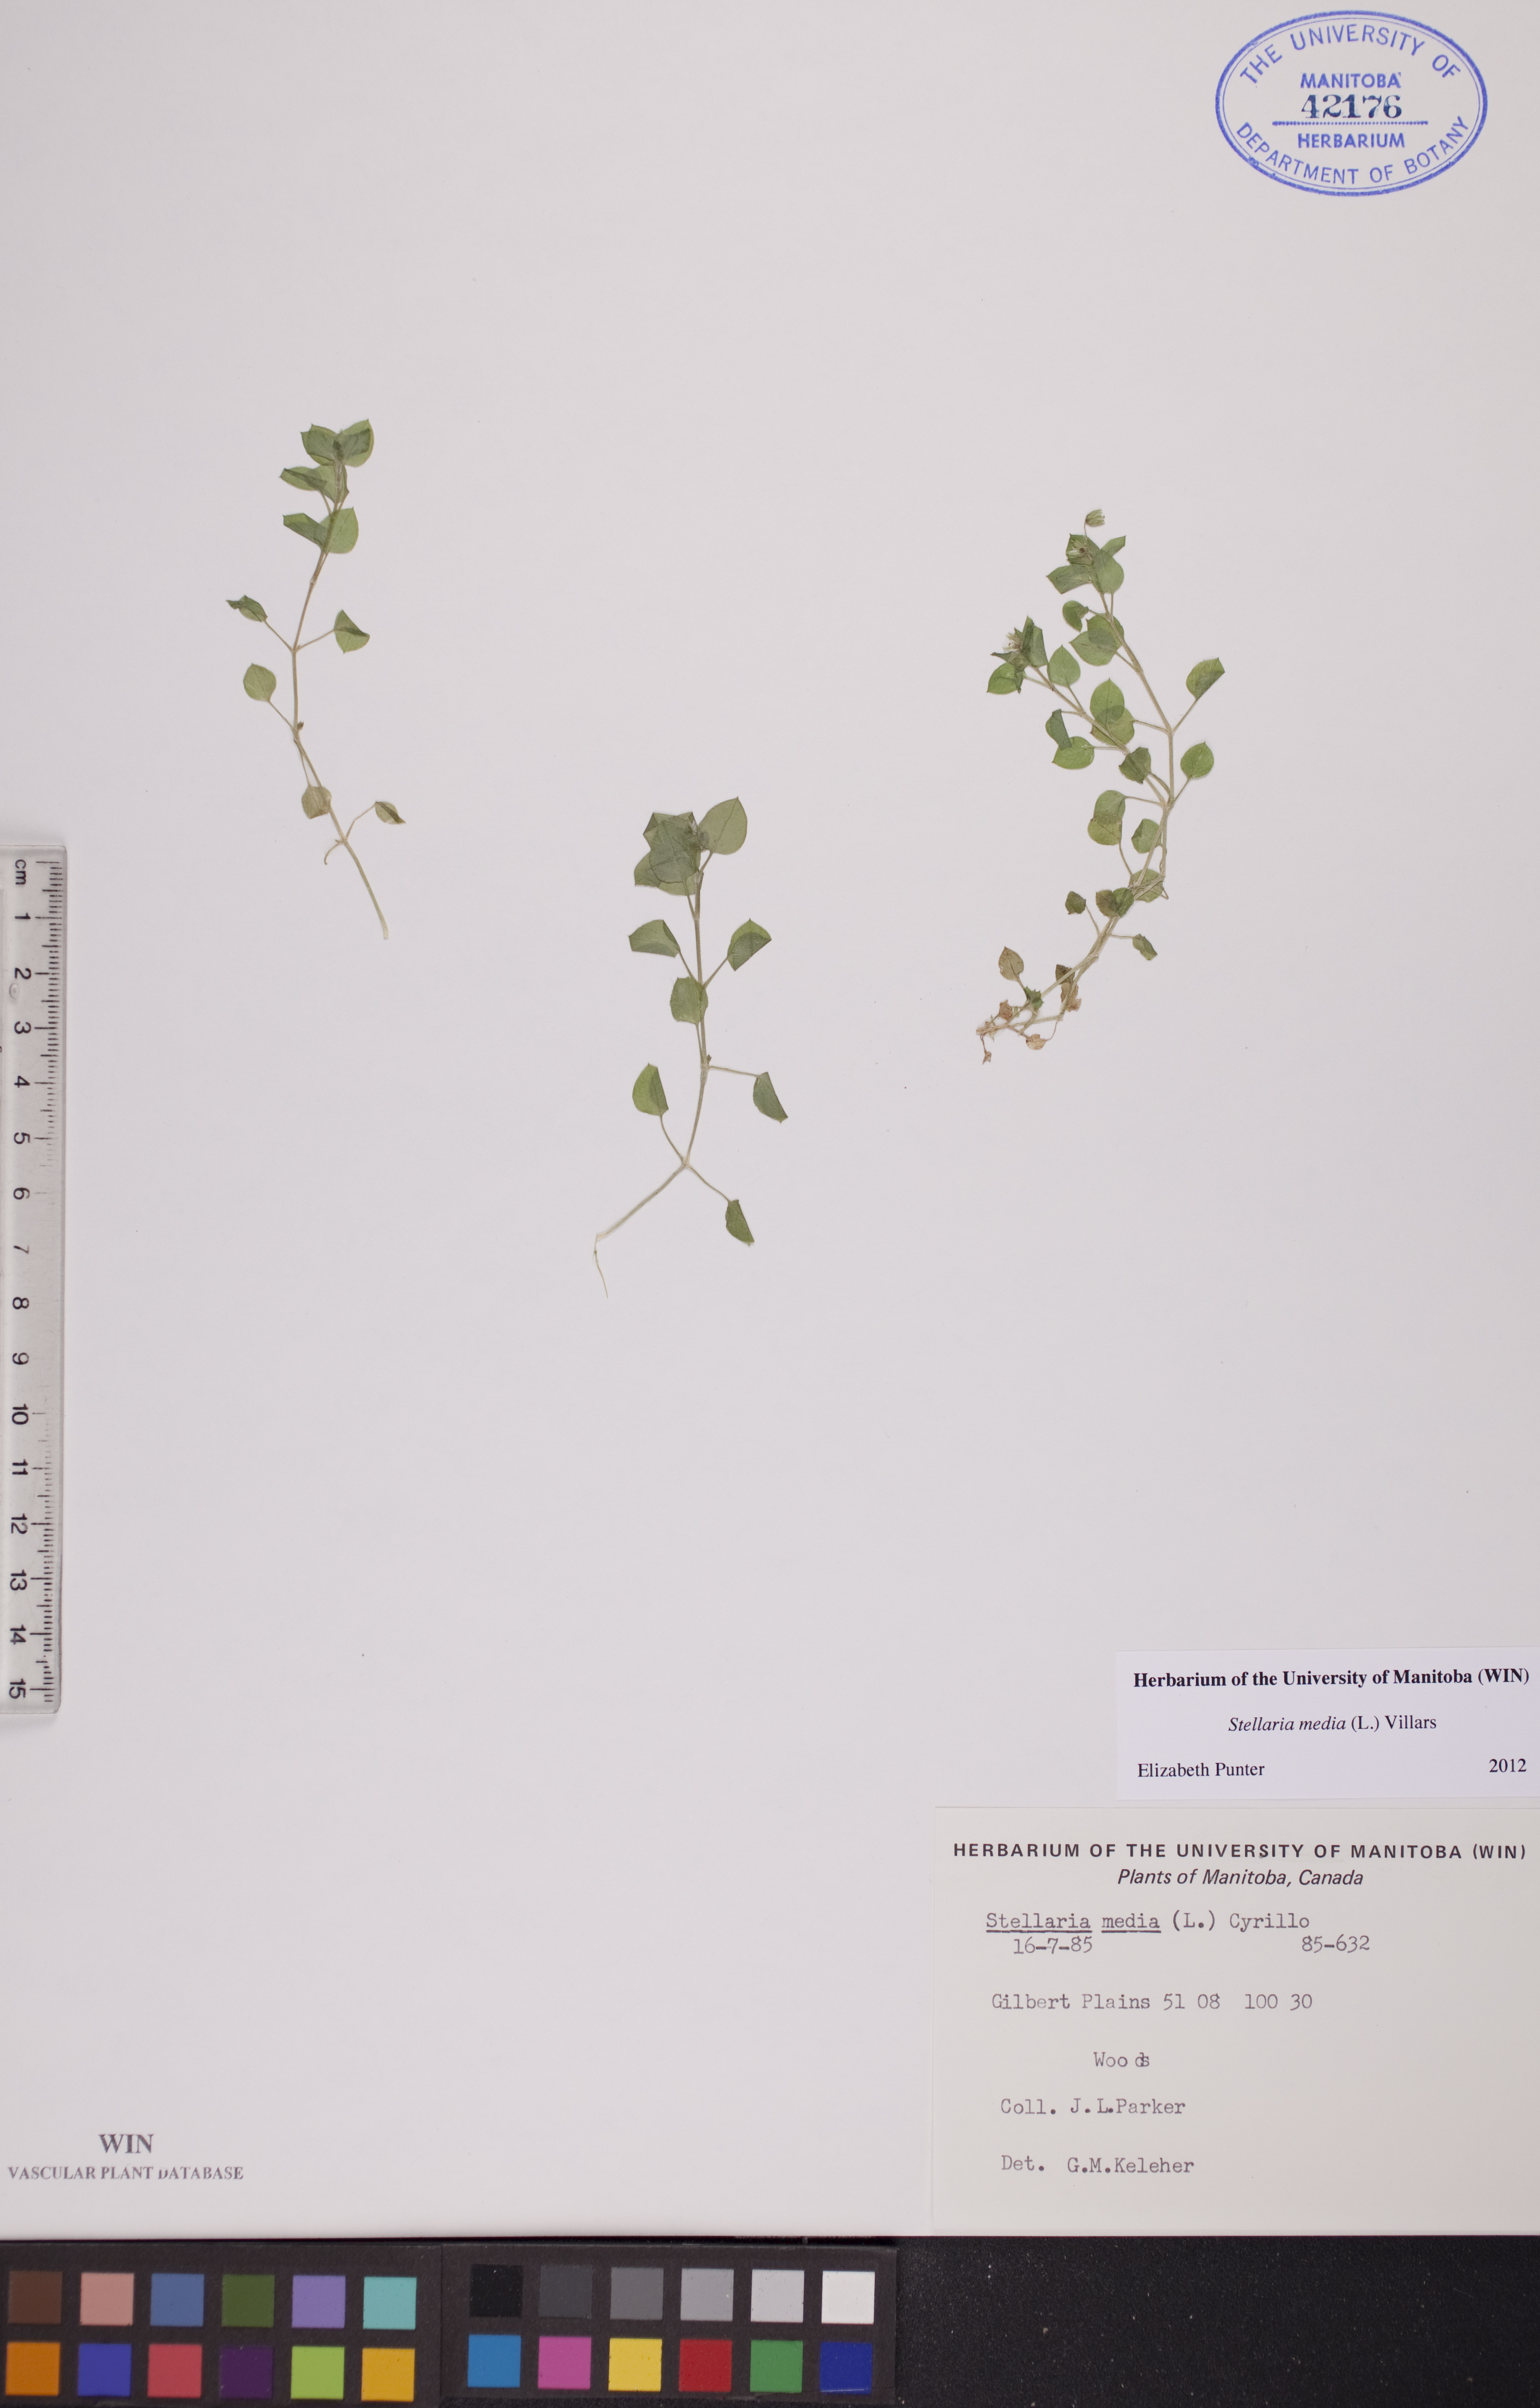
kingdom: Plantae
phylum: Tracheophyta
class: Magnoliopsida
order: Caryophyllales
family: Caryophyllaceae
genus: Stellaria
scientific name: Stellaria media
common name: Common chickweed
